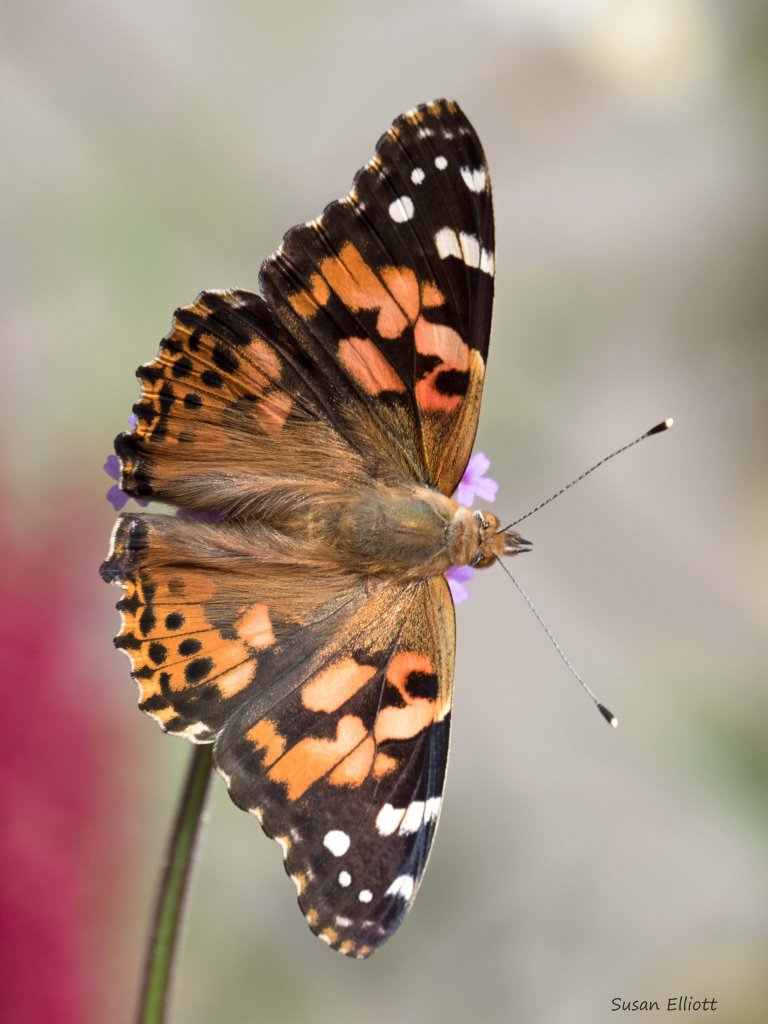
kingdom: Animalia
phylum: Arthropoda
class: Insecta
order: Lepidoptera
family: Nymphalidae
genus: Vanessa
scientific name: Vanessa cardui
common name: Painted Lady
